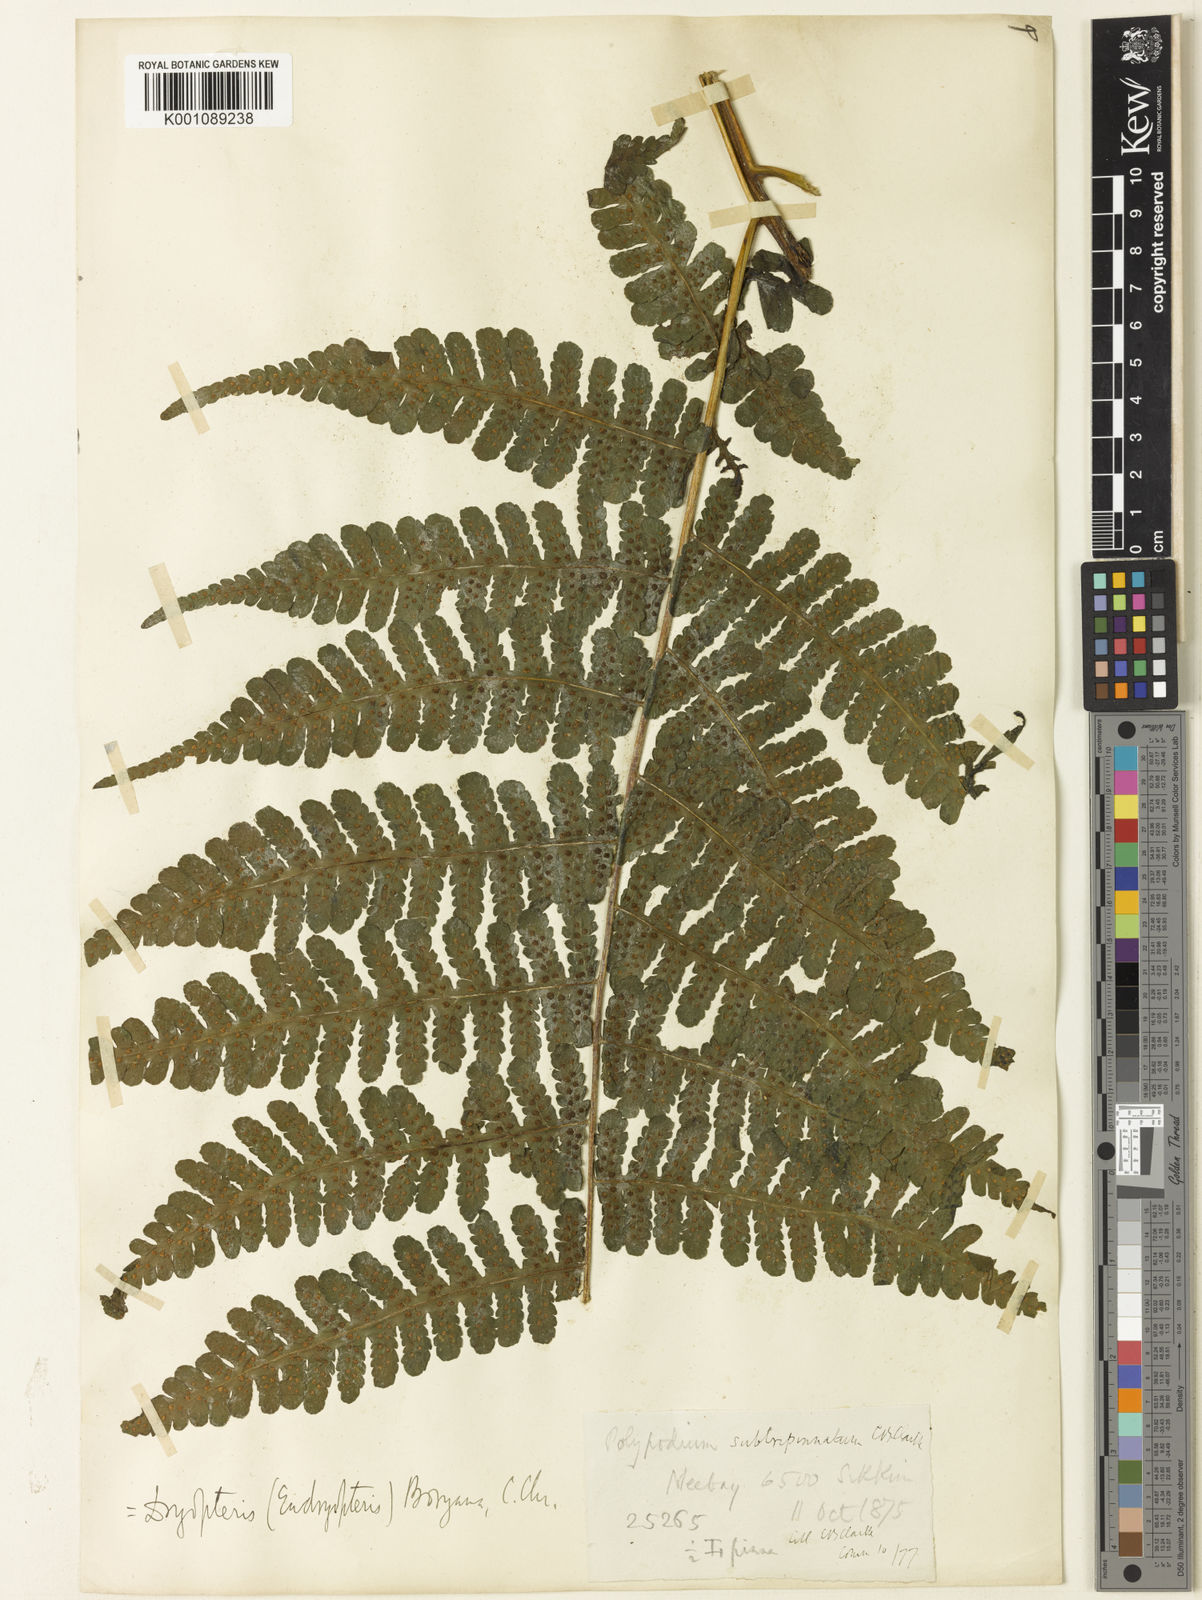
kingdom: Plantae
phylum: Tracheophyta
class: Polypodiopsida
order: Polypodiales
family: Athyriaceae
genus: Deparia
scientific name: Deparia boryana
